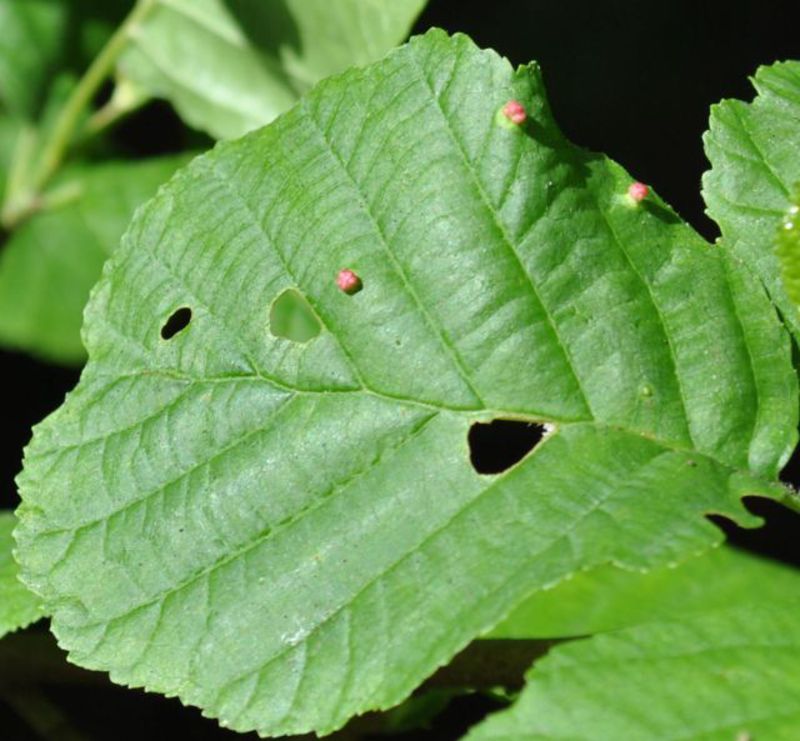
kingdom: Animalia
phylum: Arthropoda
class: Arachnida
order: Trombidiformes
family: Eriophyidae
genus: Eriophyes
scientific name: Eriophyes laevis
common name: Alder leaf gall mite
